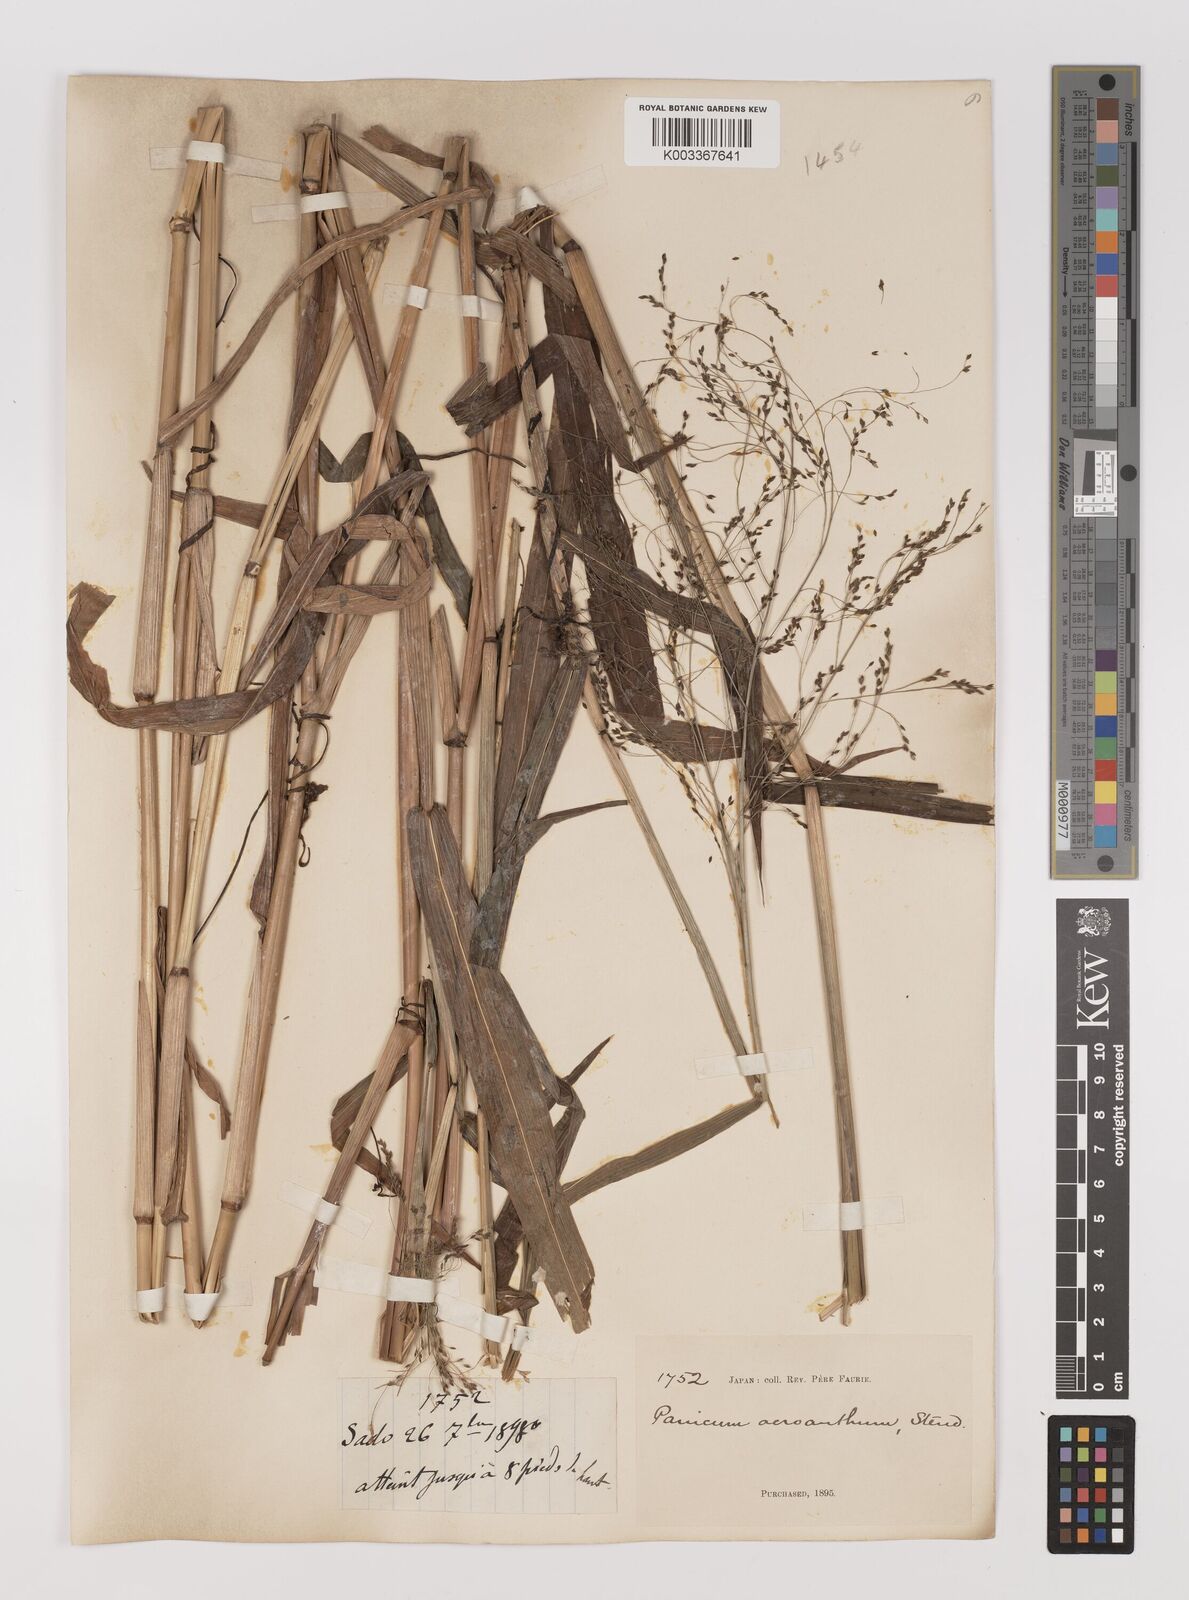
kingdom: Plantae
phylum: Tracheophyta
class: Liliopsida
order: Poales
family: Poaceae
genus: Panicum
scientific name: Panicum bisulcatum
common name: Japanese panicgrass
